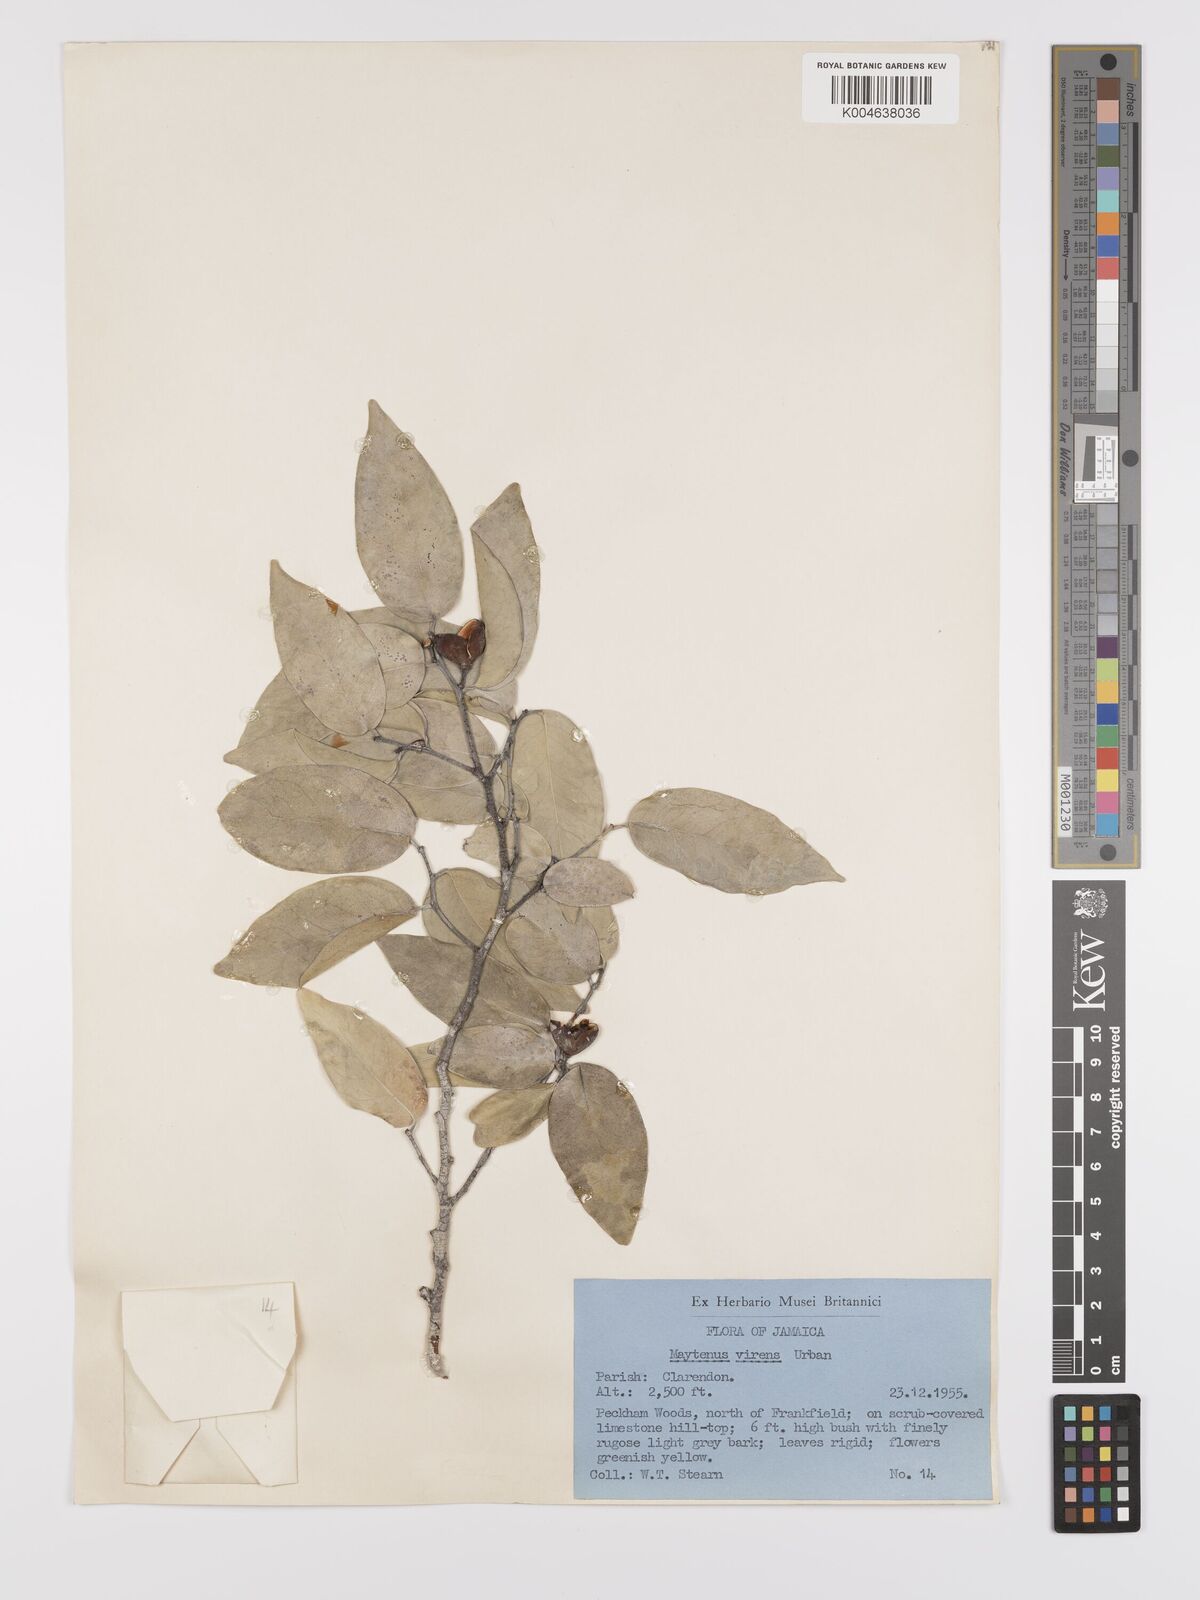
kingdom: Plantae
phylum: Tracheophyta
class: Magnoliopsida
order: Celastrales
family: Celastraceae
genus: Monteverdia
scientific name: Monteverdia virens
